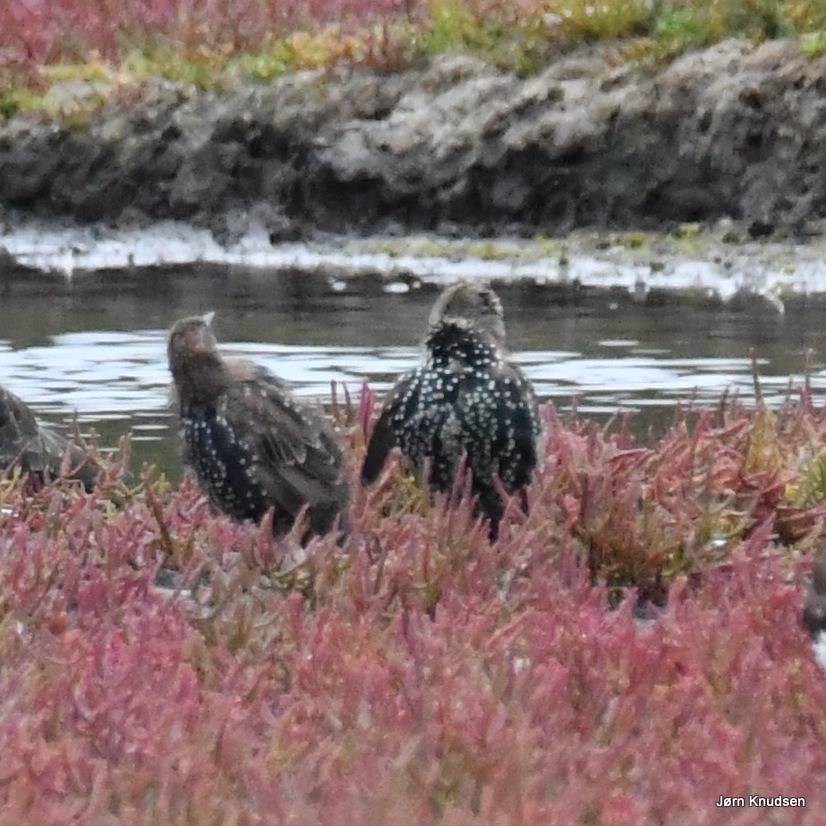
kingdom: Animalia
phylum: Chordata
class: Aves
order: Passeriformes
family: Sturnidae
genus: Sturnus
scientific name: Sturnus vulgaris
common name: Stær
